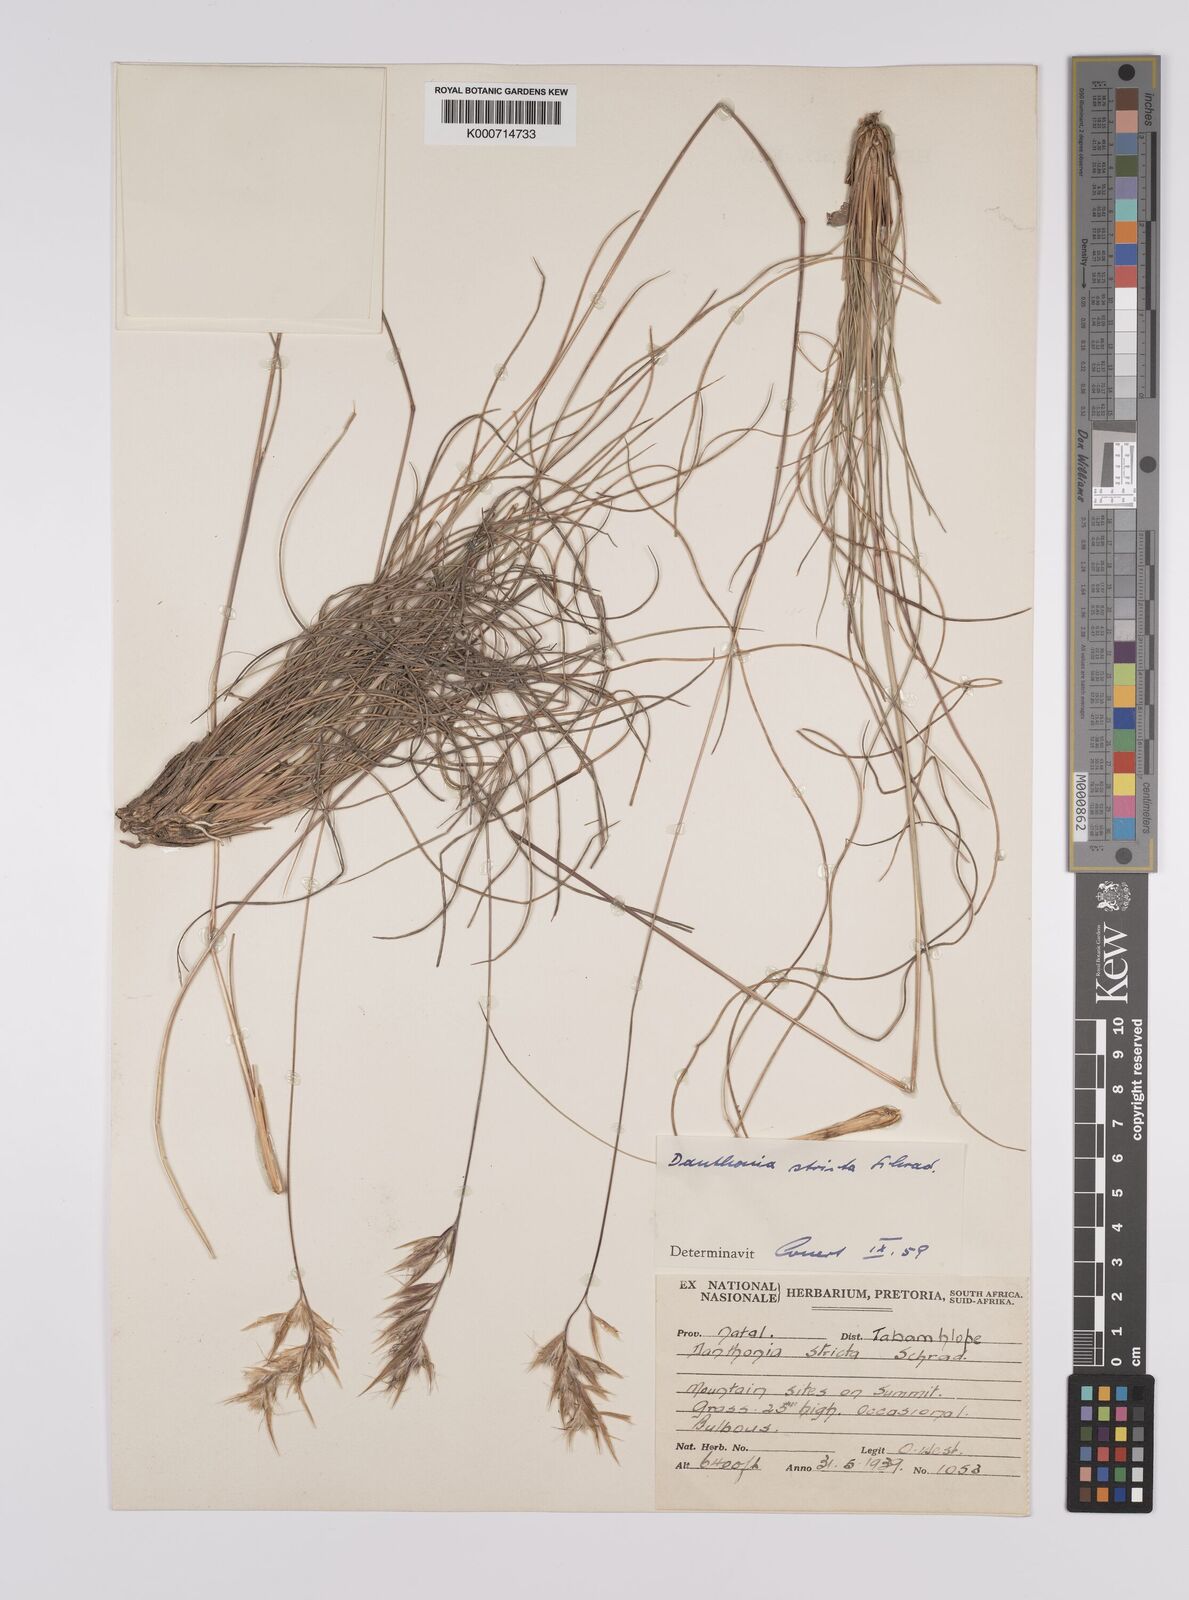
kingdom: Plantae
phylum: Tracheophyta
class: Liliopsida
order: Poales
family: Poaceae
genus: Rytidosperma
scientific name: Rytidosperma
